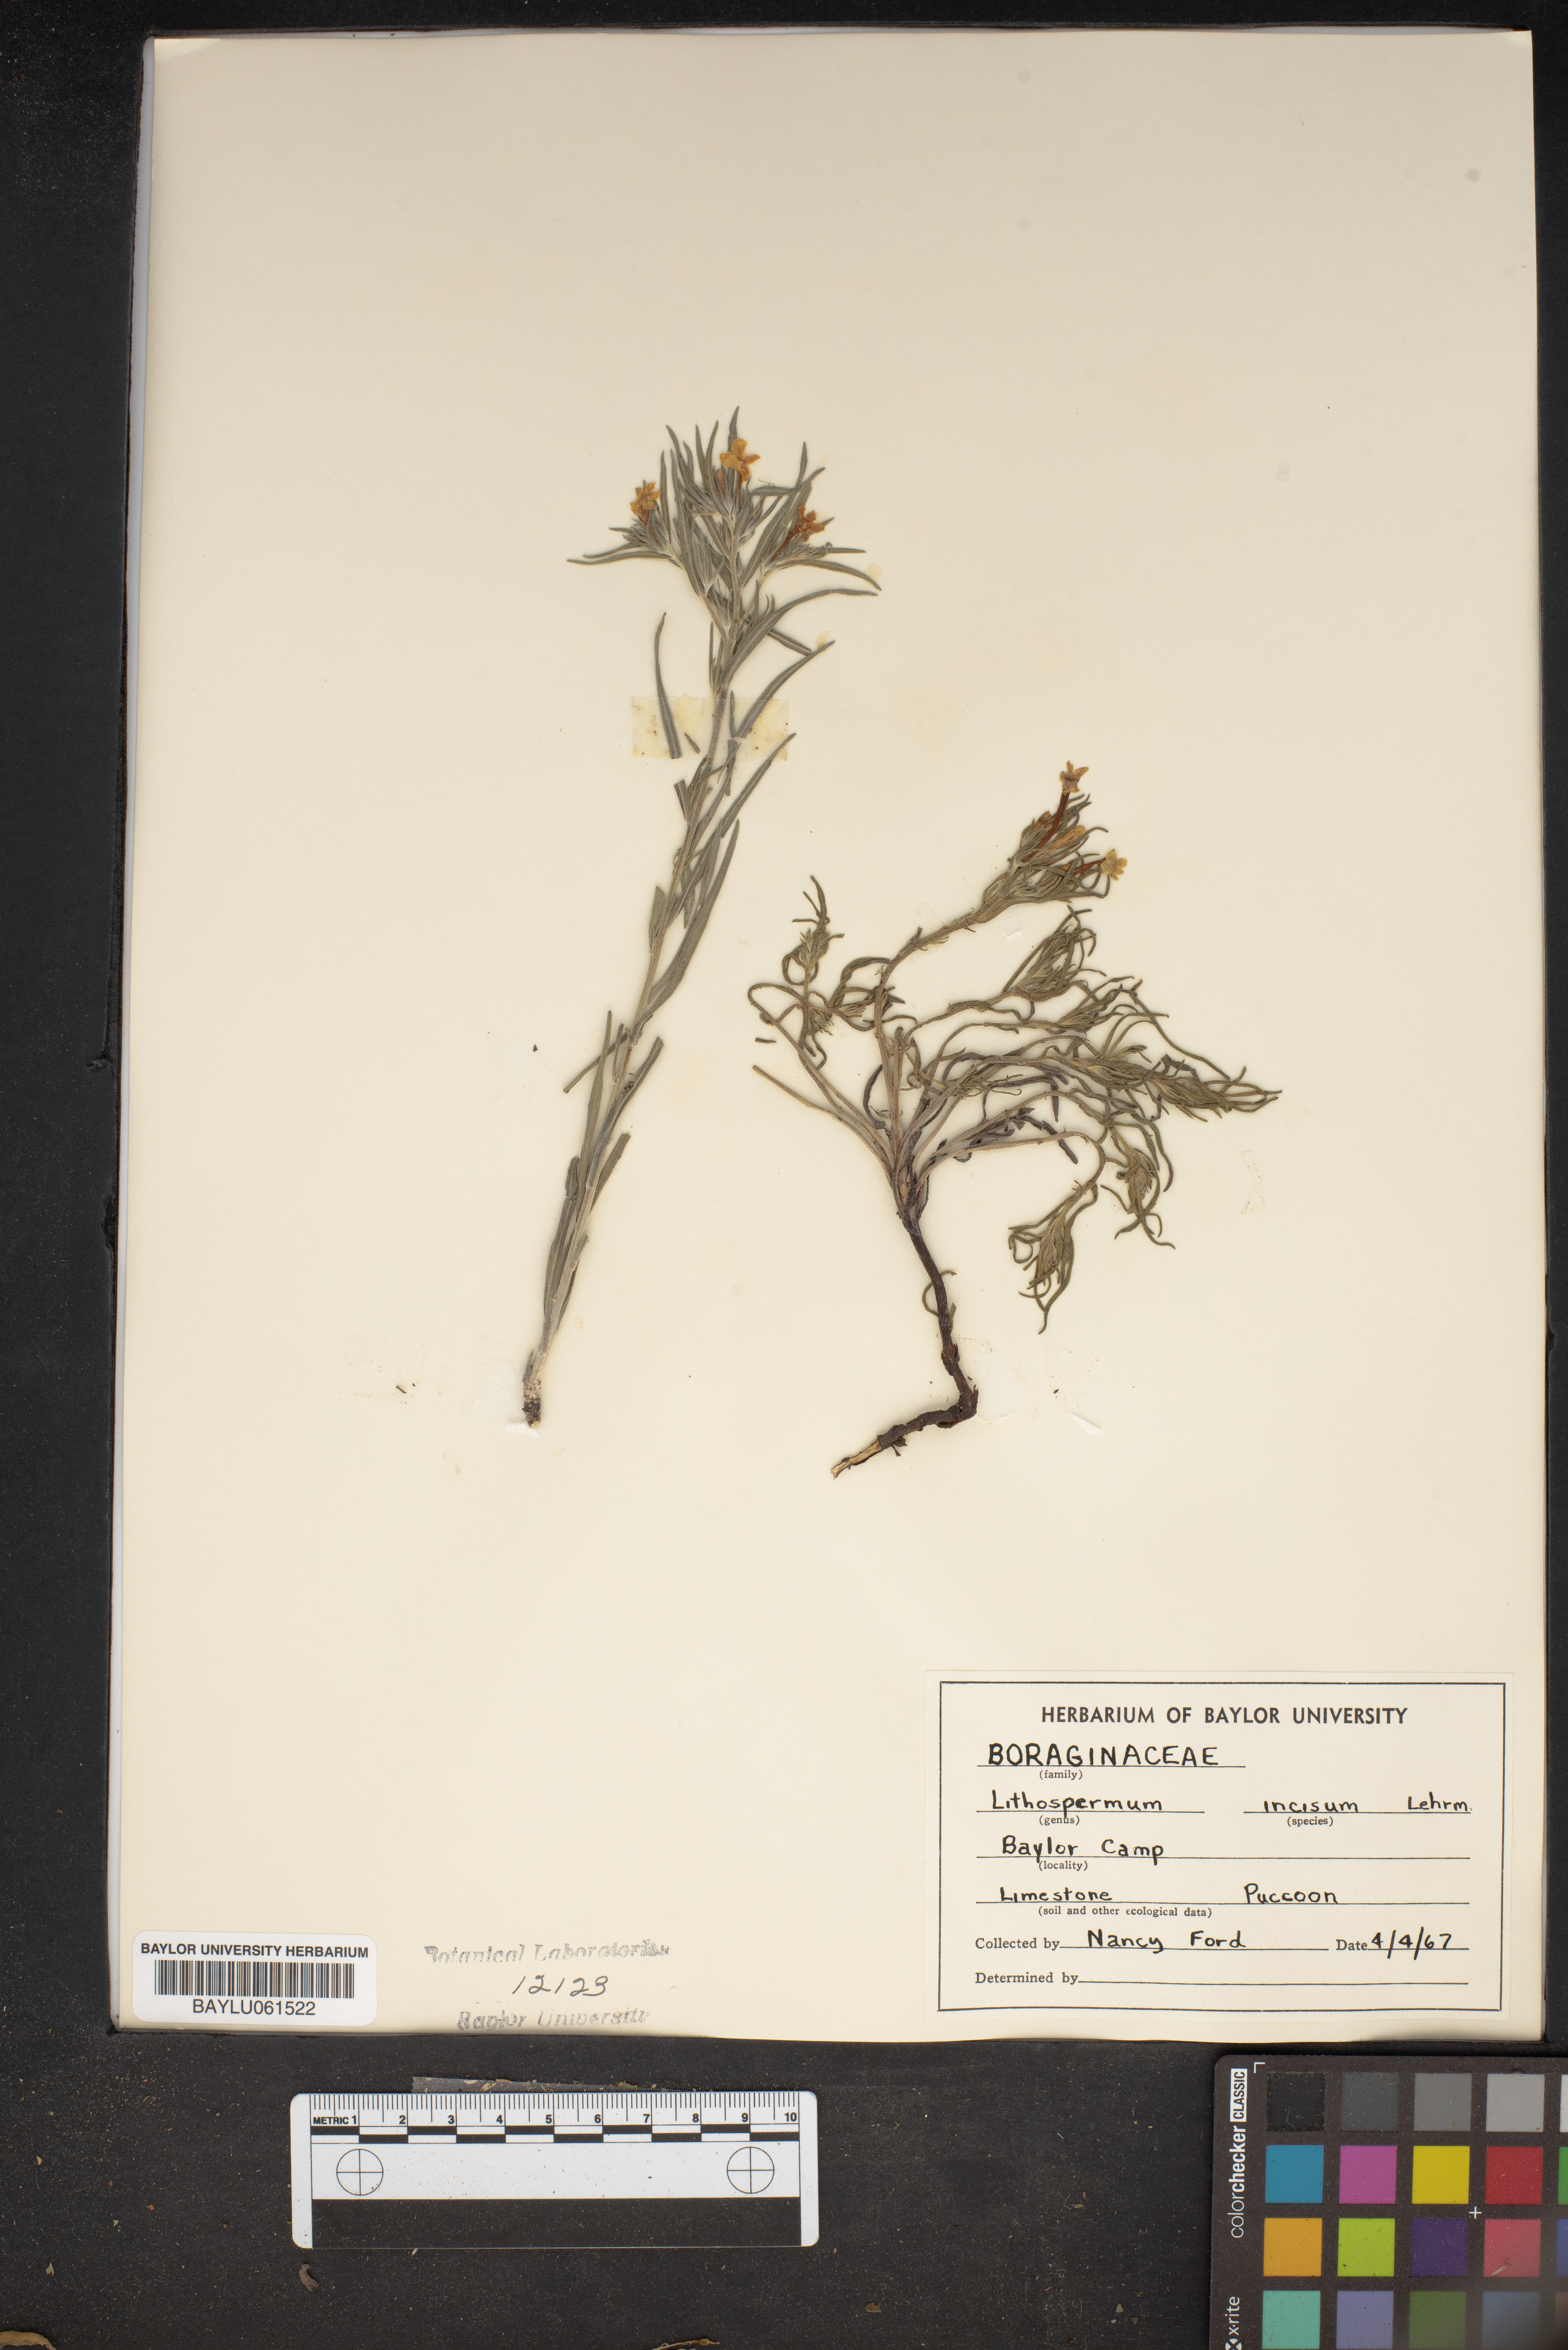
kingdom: Plantae
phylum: Tracheophyta
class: Magnoliopsida
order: Boraginales
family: Boraginaceae
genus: Lithospermum
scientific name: Lithospermum incisum
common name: Fringed gromwell
